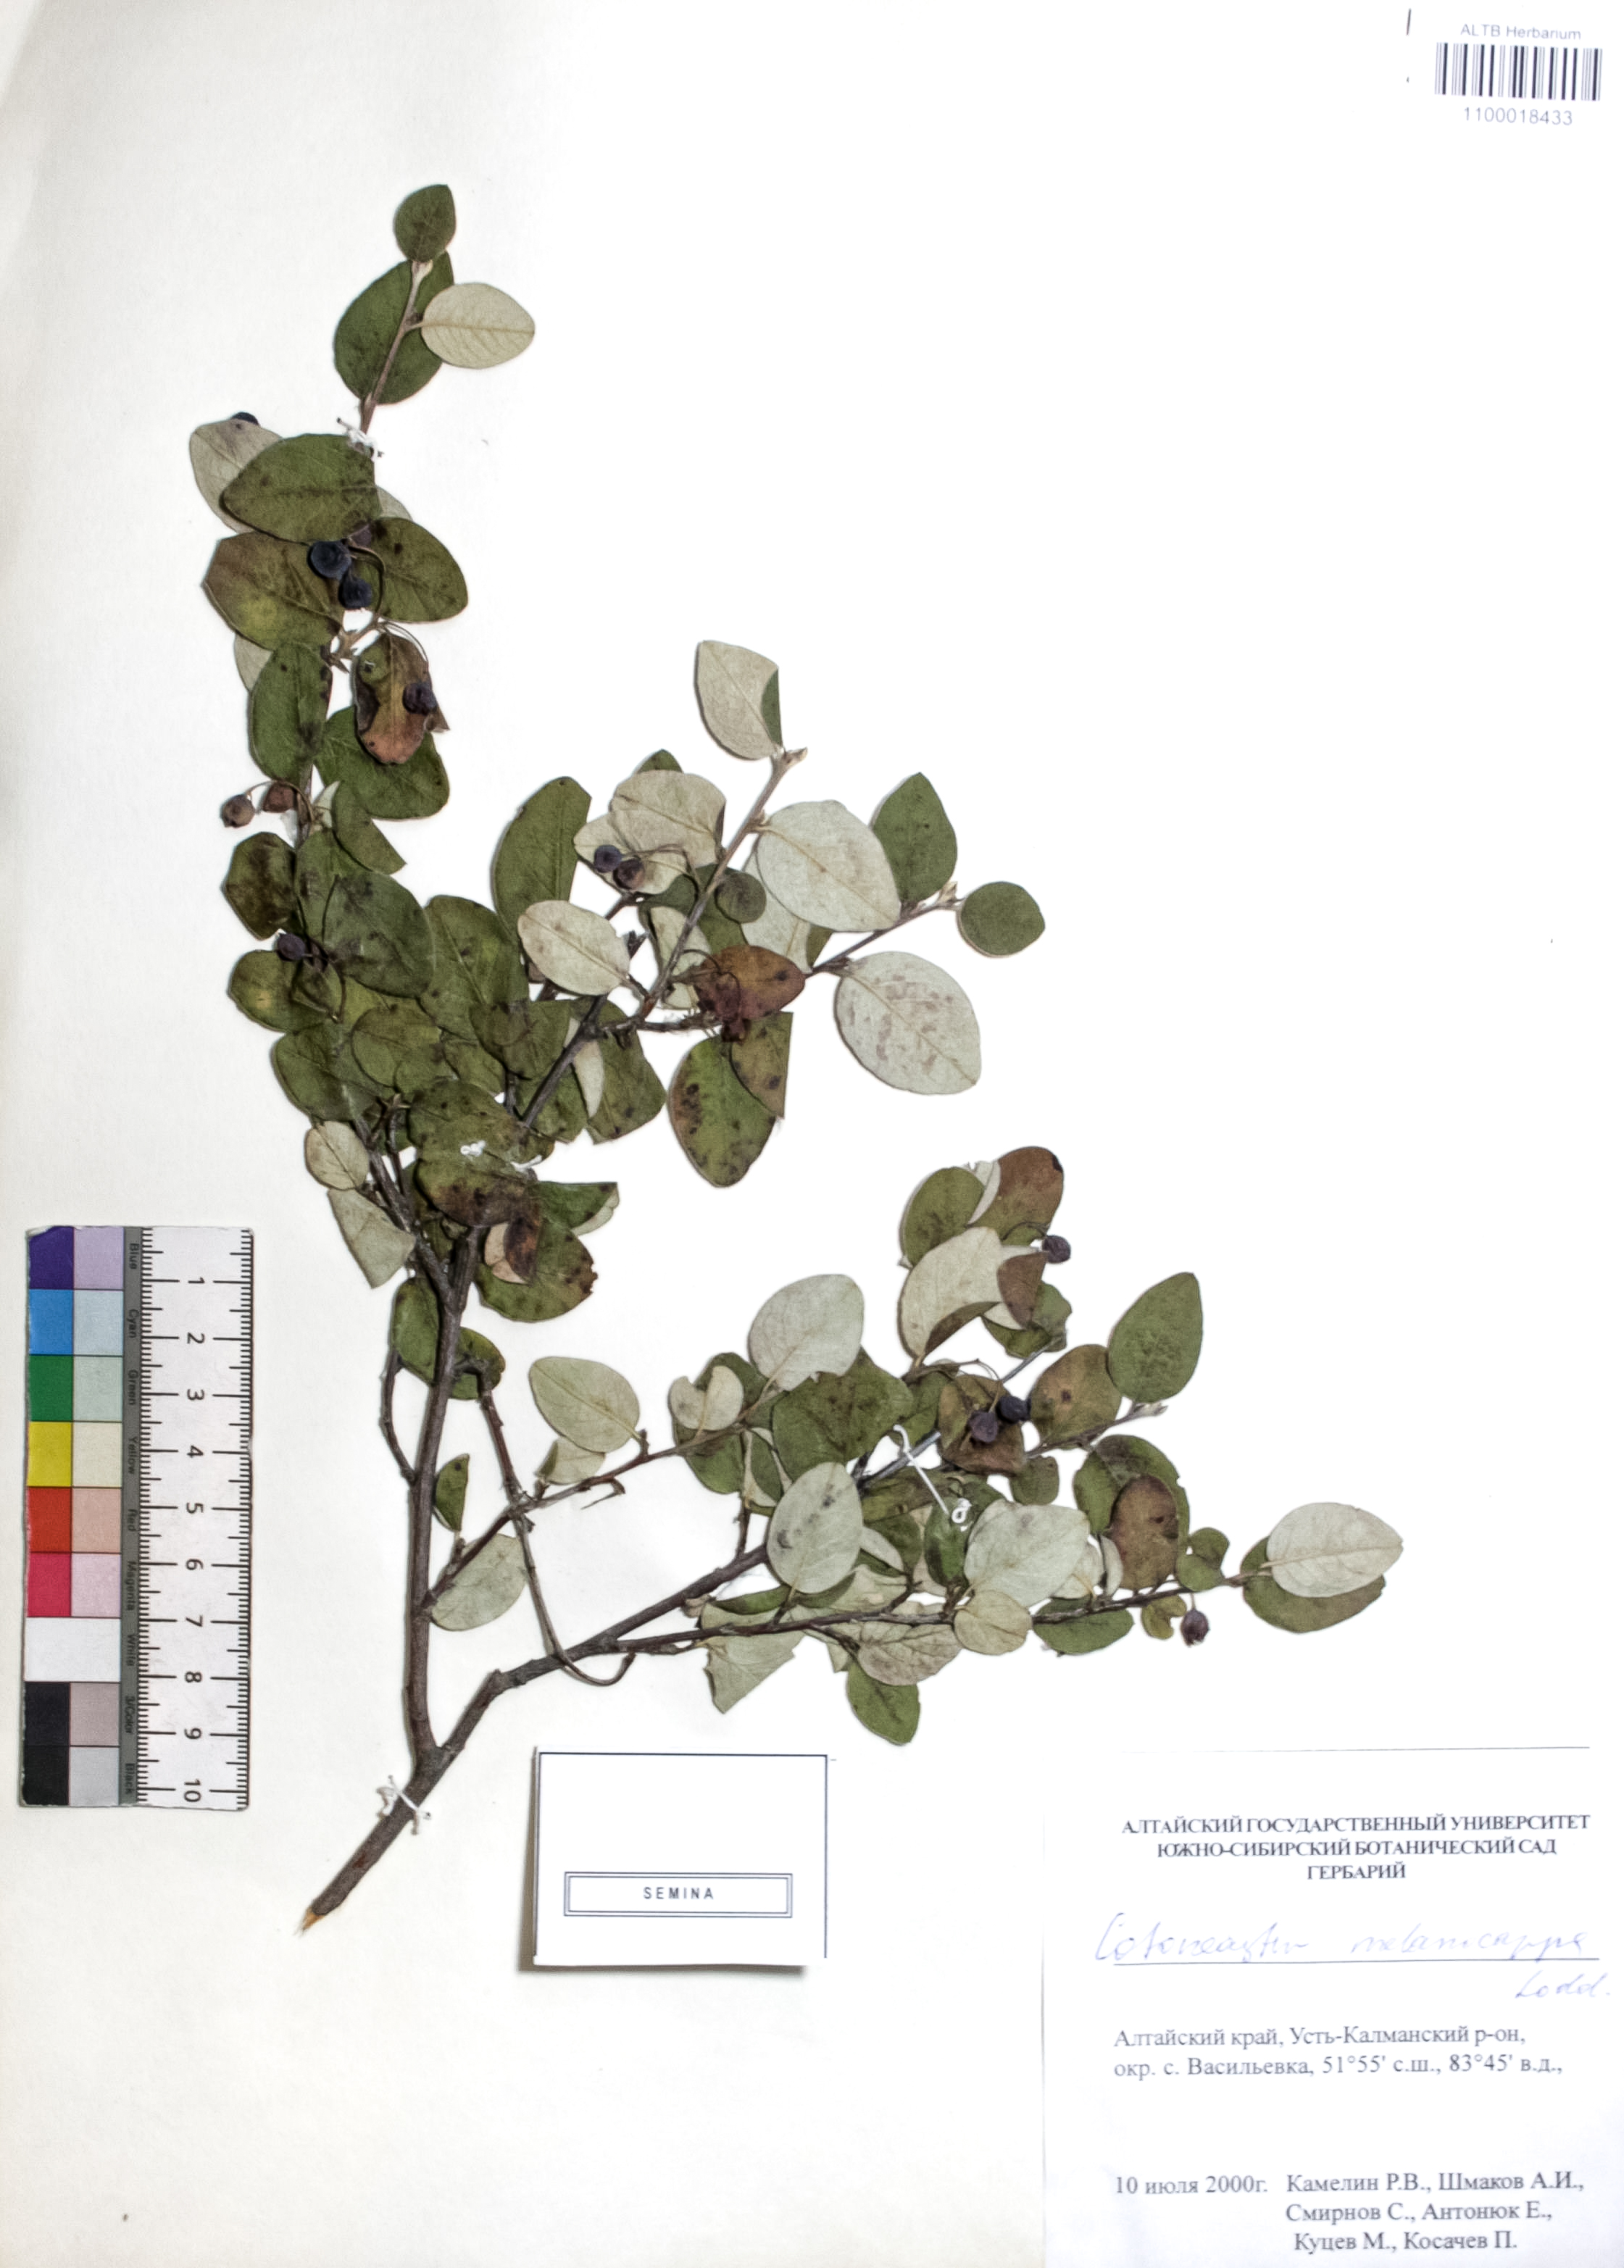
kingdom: Plantae
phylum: Tracheophyta
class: Magnoliopsida
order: Rosales
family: Rosaceae
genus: Cotoneaster
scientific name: Cotoneaster niger
